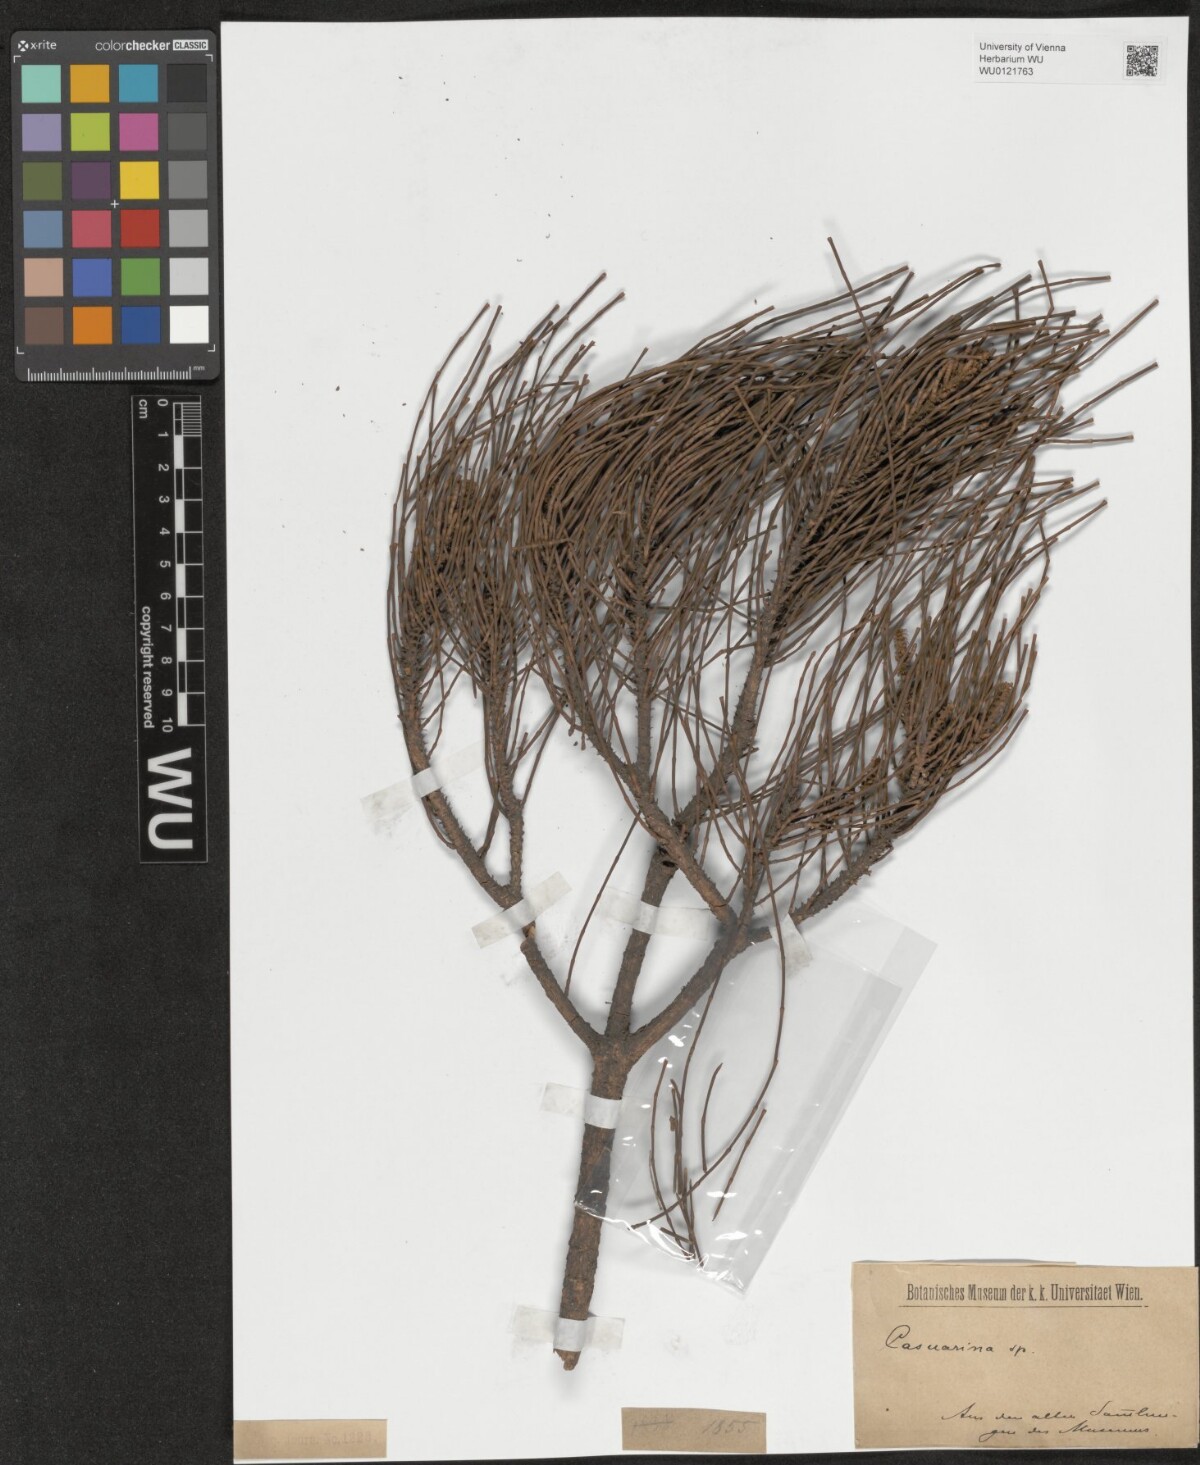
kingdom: Plantae
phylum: Tracheophyta
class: Magnoliopsida
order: Fagales
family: Casuarinaceae
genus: Casuarina
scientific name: Casuarina
